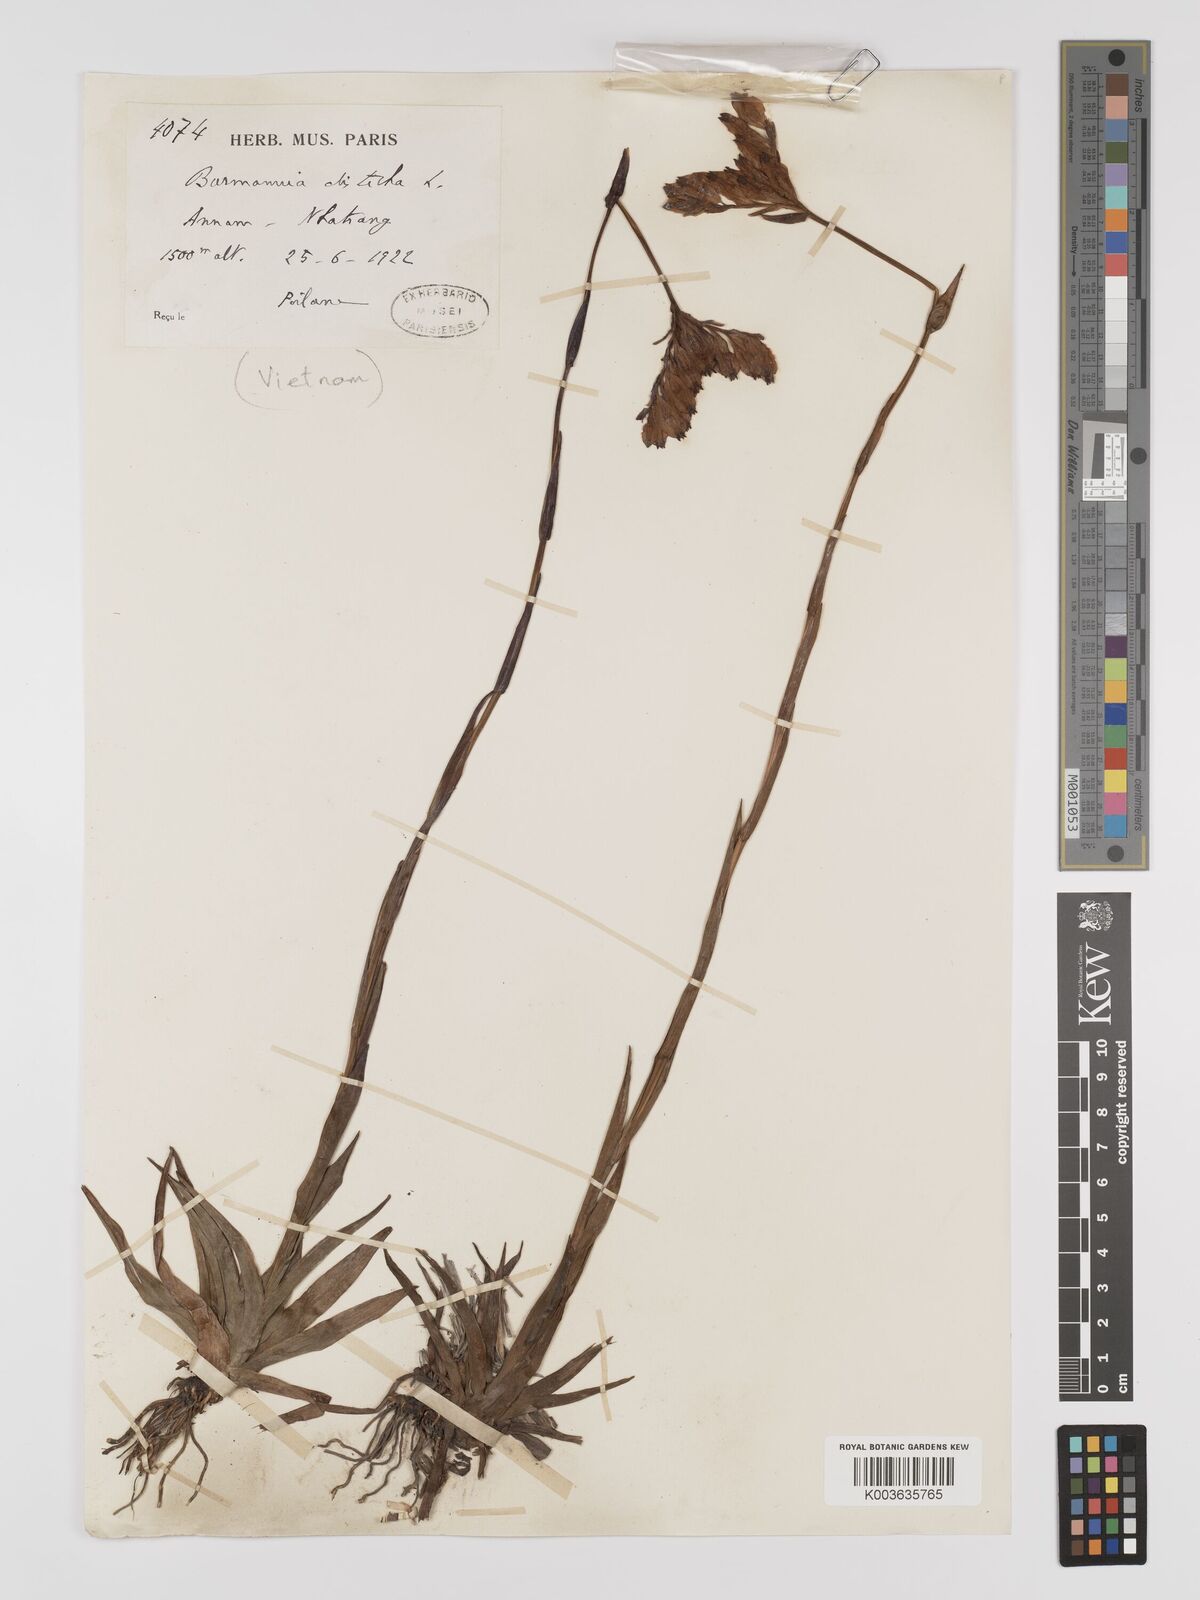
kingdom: Plantae
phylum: Tracheophyta
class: Liliopsida
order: Dioscoreales
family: Burmanniaceae
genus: Burmannia
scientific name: Burmannia disticha
